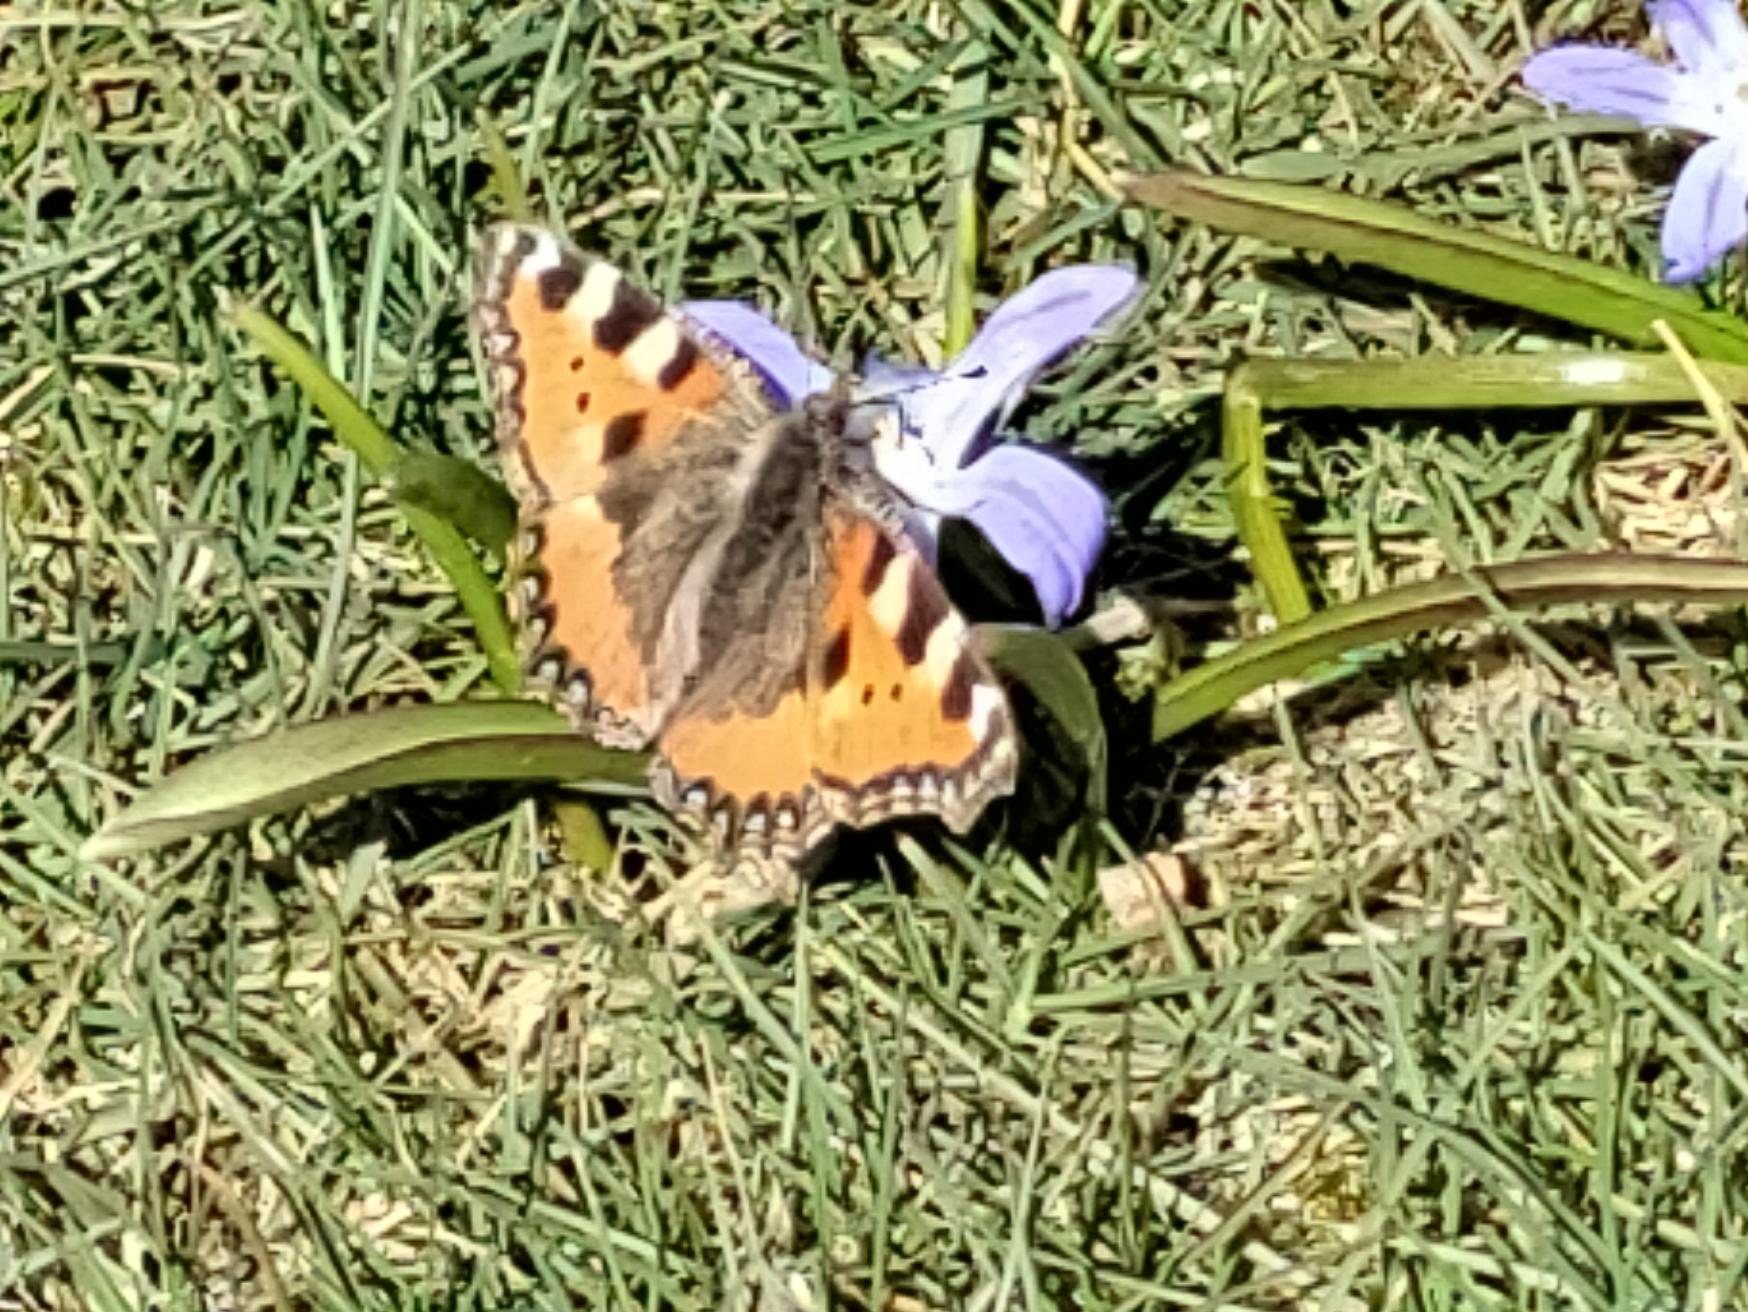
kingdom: Animalia
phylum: Arthropoda
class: Insecta
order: Lepidoptera
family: Nymphalidae
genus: Aglais
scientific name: Aglais urticae
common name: Nældens takvinge
